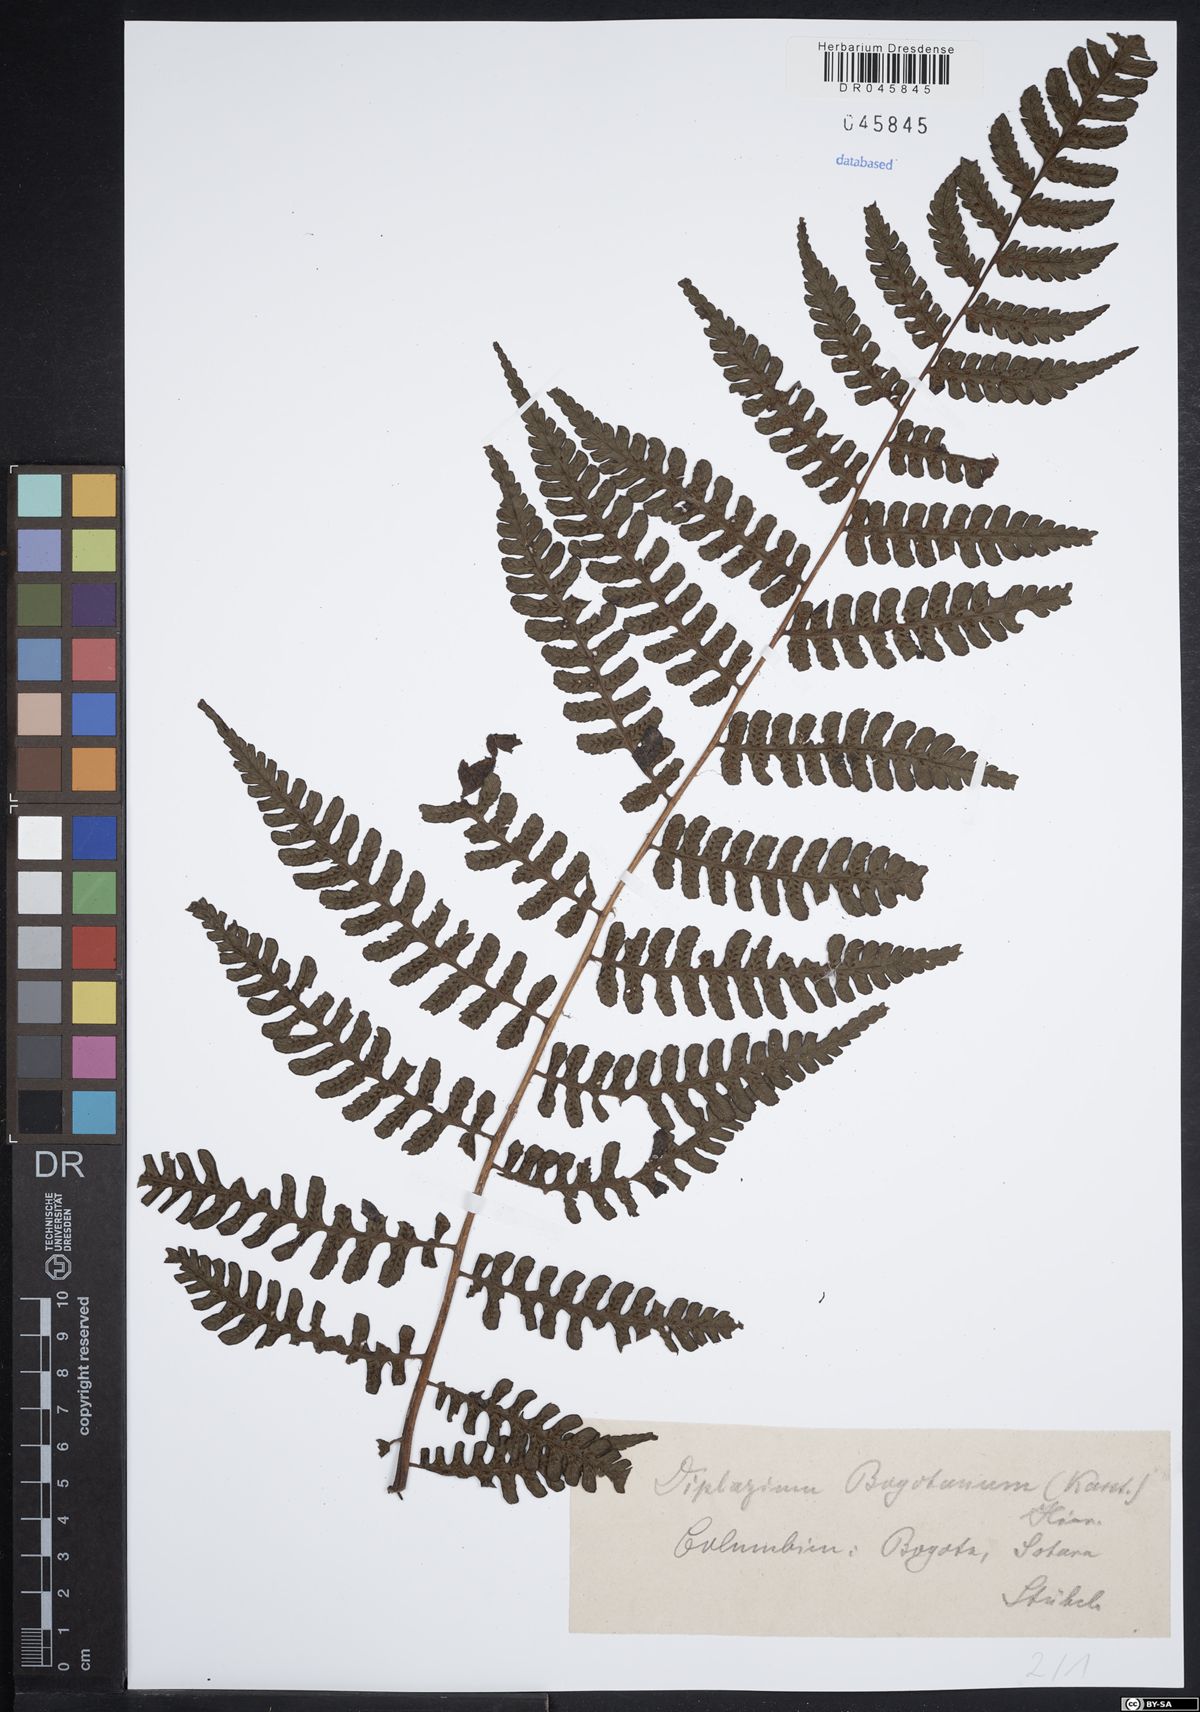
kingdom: Plantae
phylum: Tracheophyta
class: Polypodiopsida
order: Polypodiales
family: Athyriaceae
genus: Diplazium
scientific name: Diplazium bogotense
